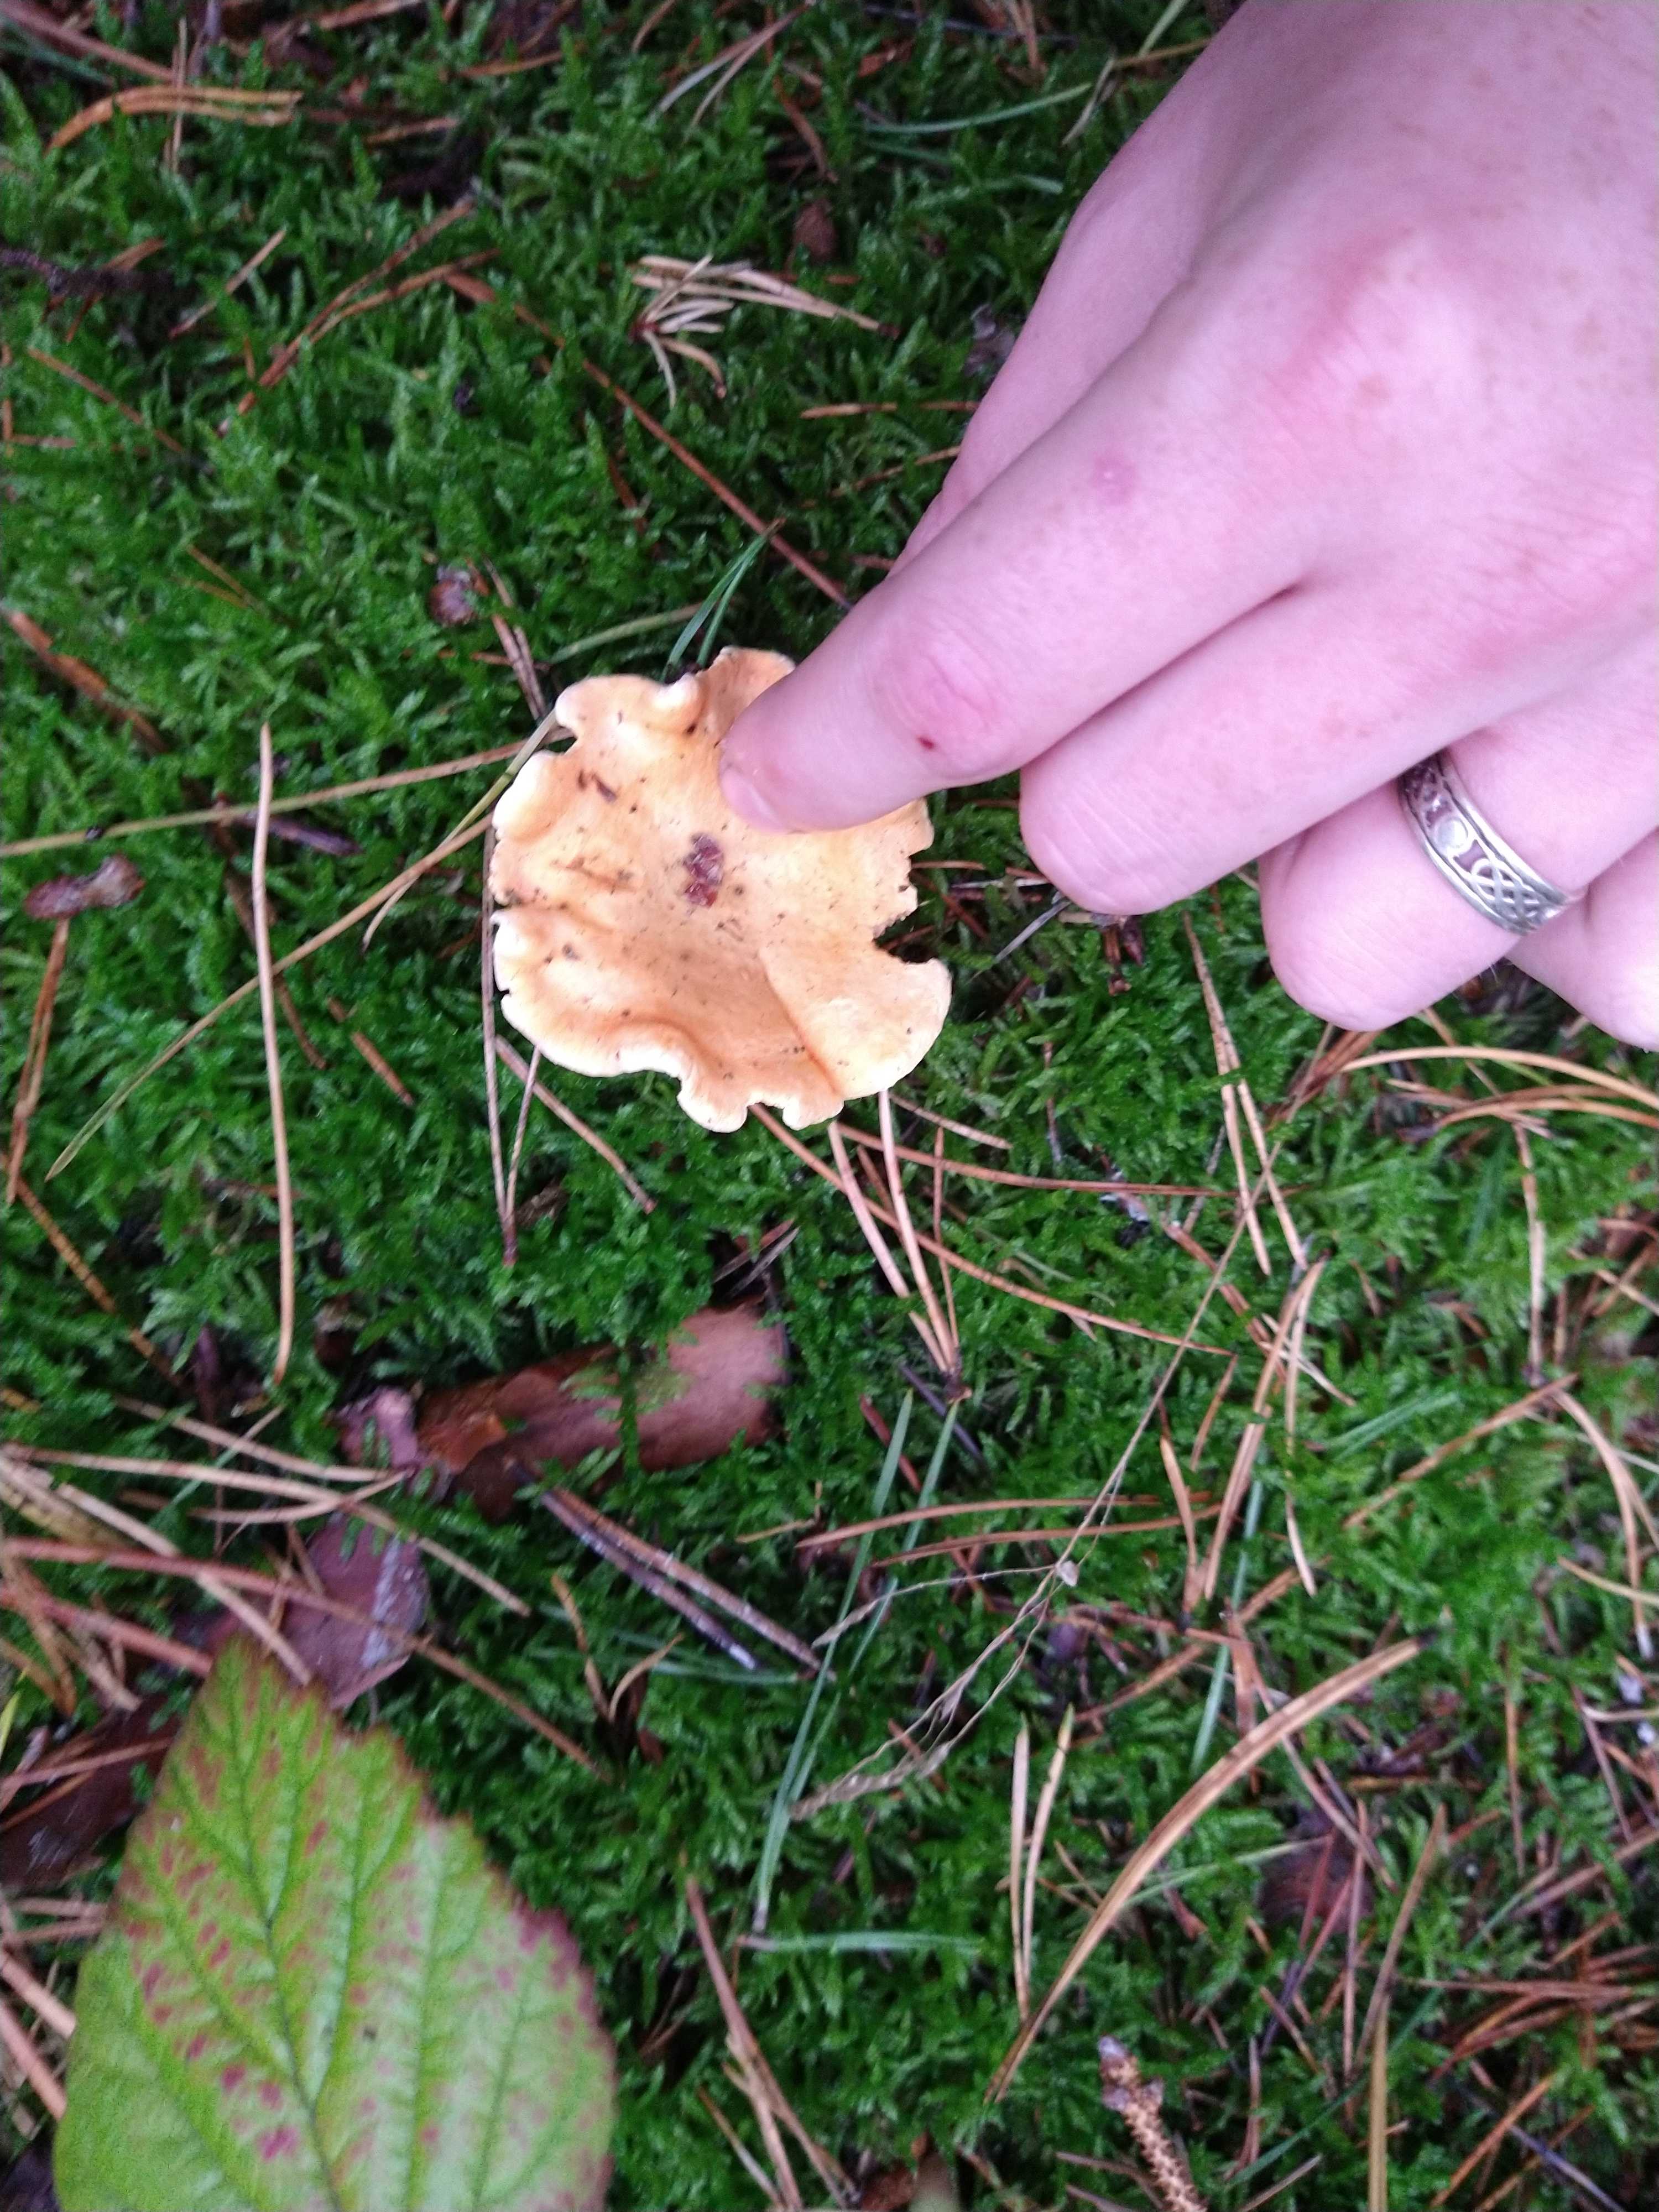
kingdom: Fungi
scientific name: Fungi
